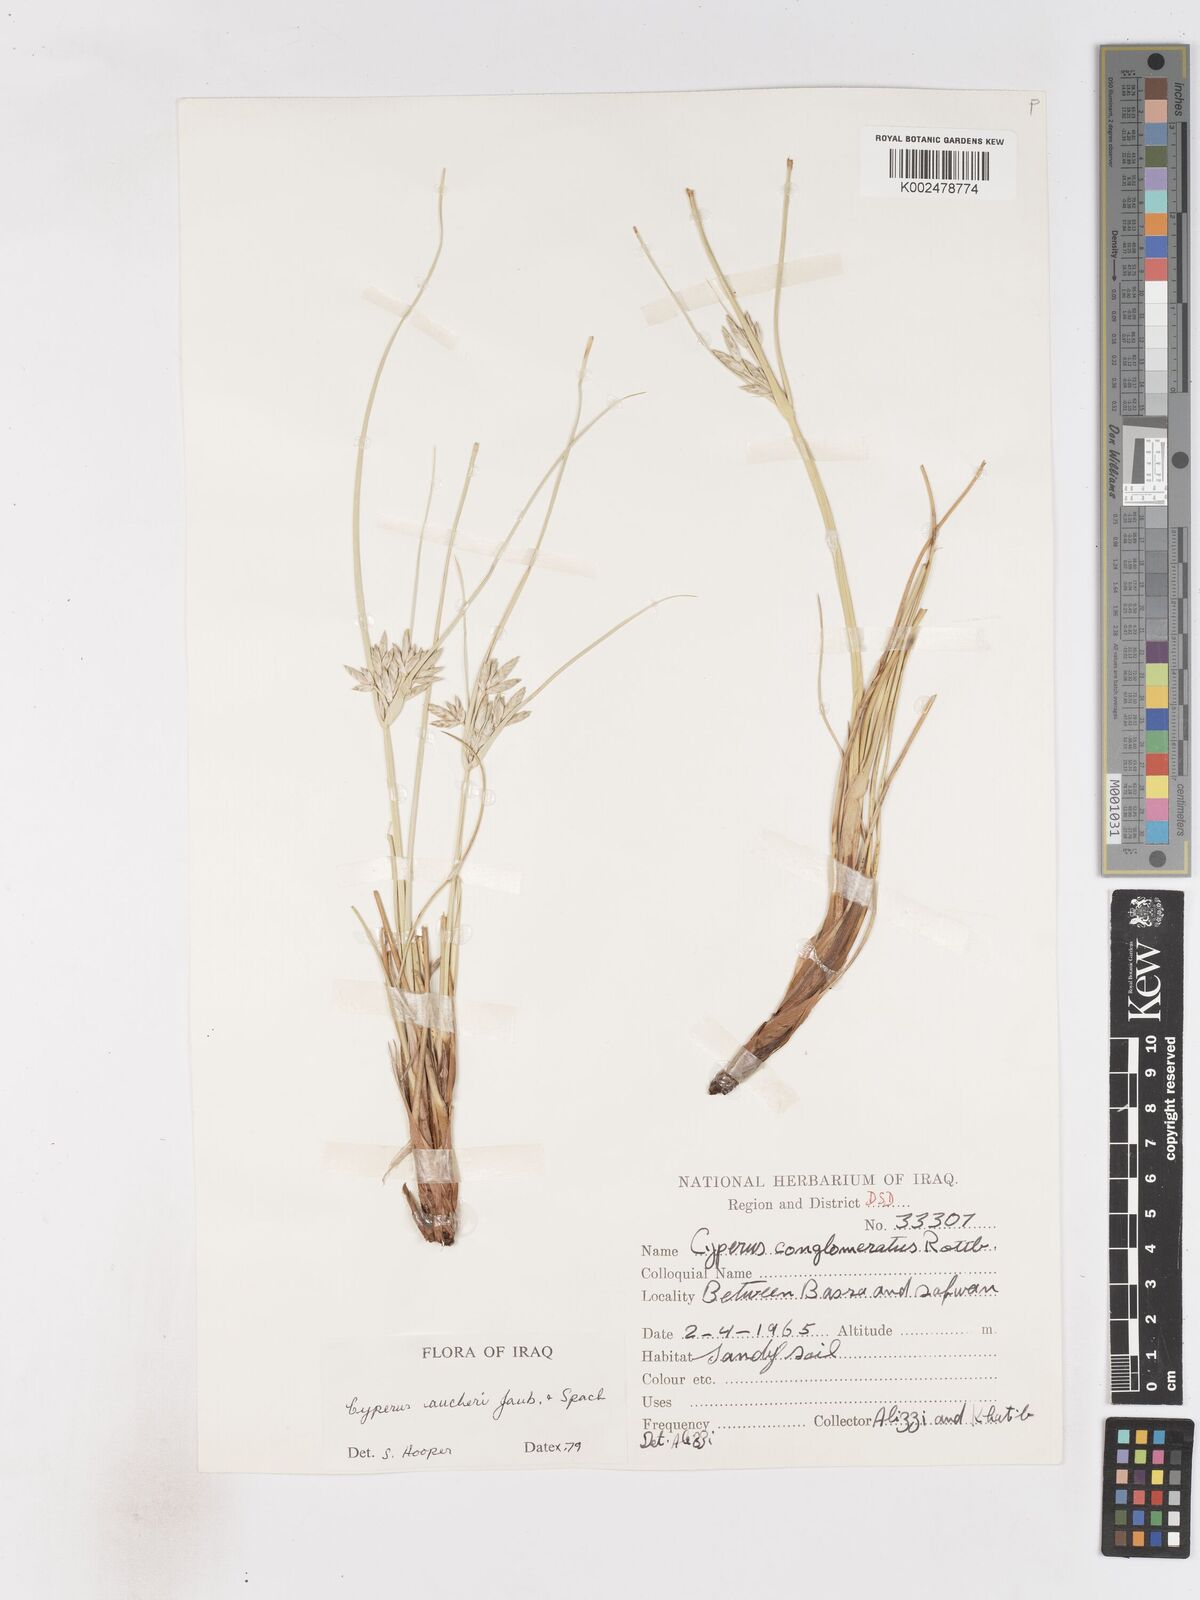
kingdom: Plantae
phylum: Tracheophyta
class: Liliopsida
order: Poales
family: Cyperaceae
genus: Cyperus
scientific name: Cyperus aucheri
